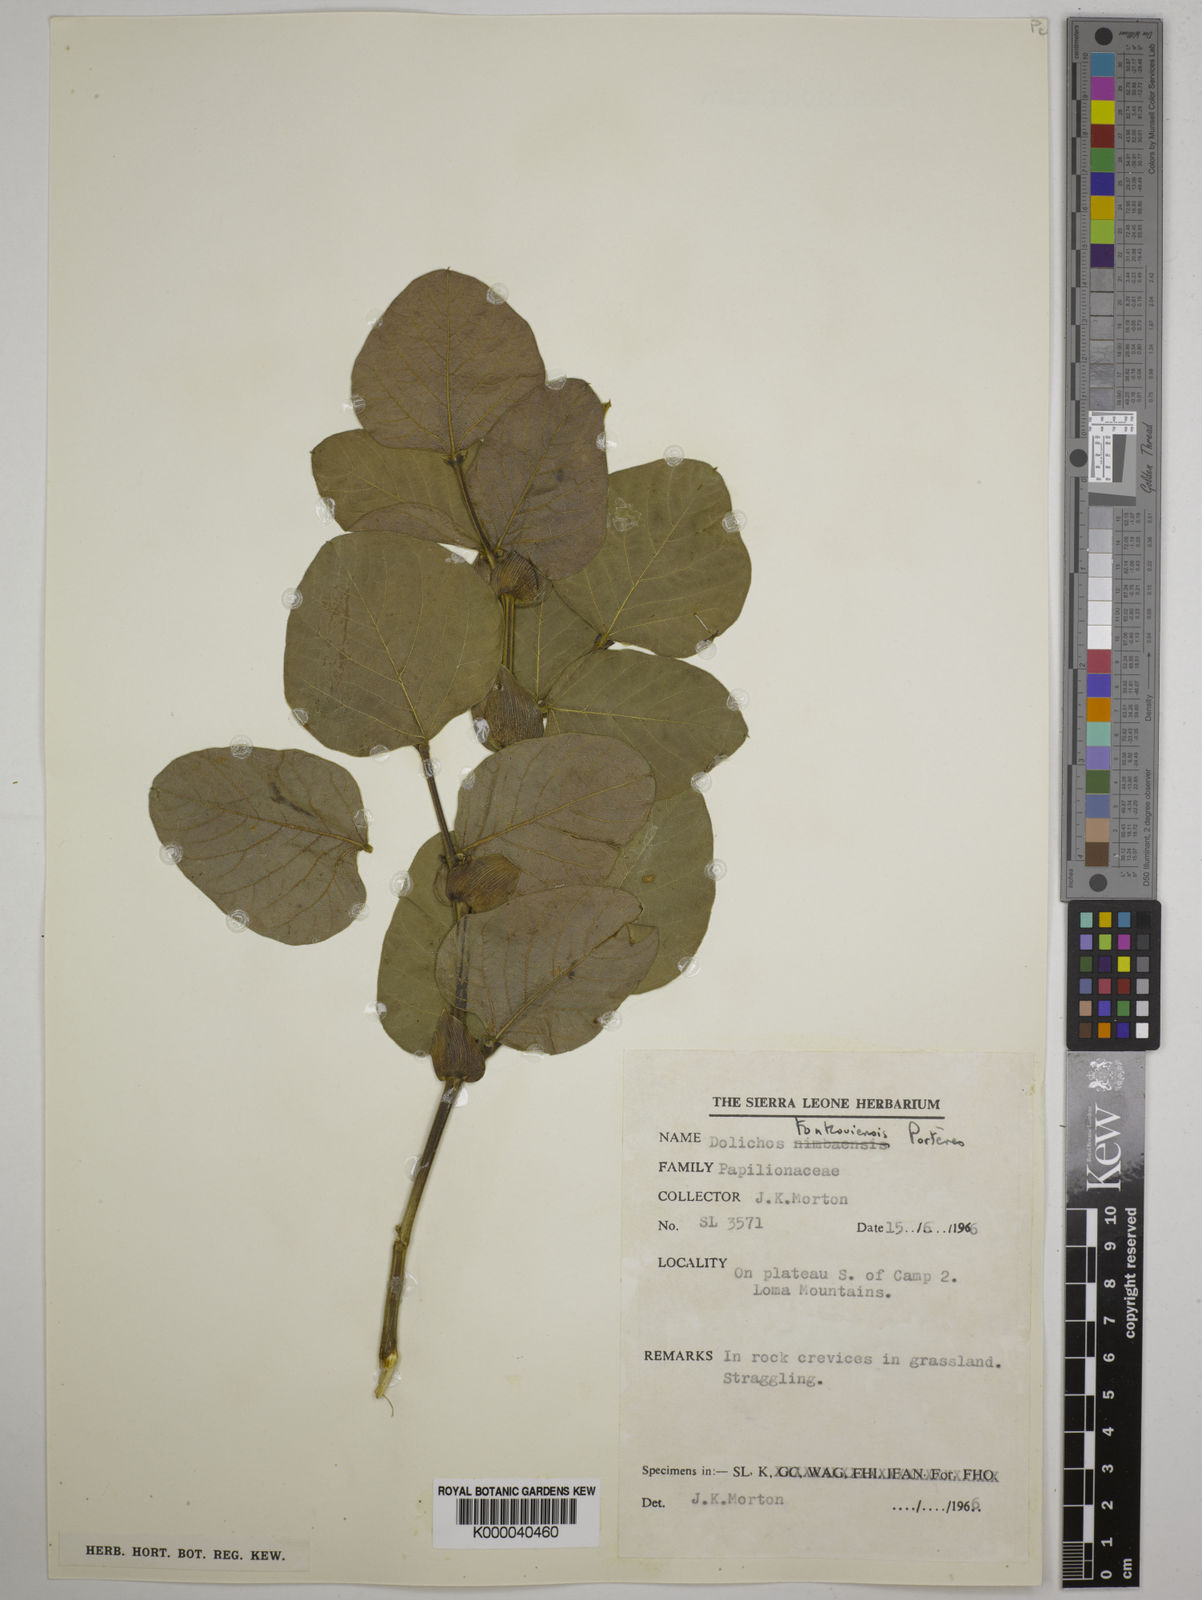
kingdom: Plantae
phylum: Tracheophyta
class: Magnoliopsida
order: Fabales
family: Fabaceae
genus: Dolichos
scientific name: Dolichos tonkouiensis
